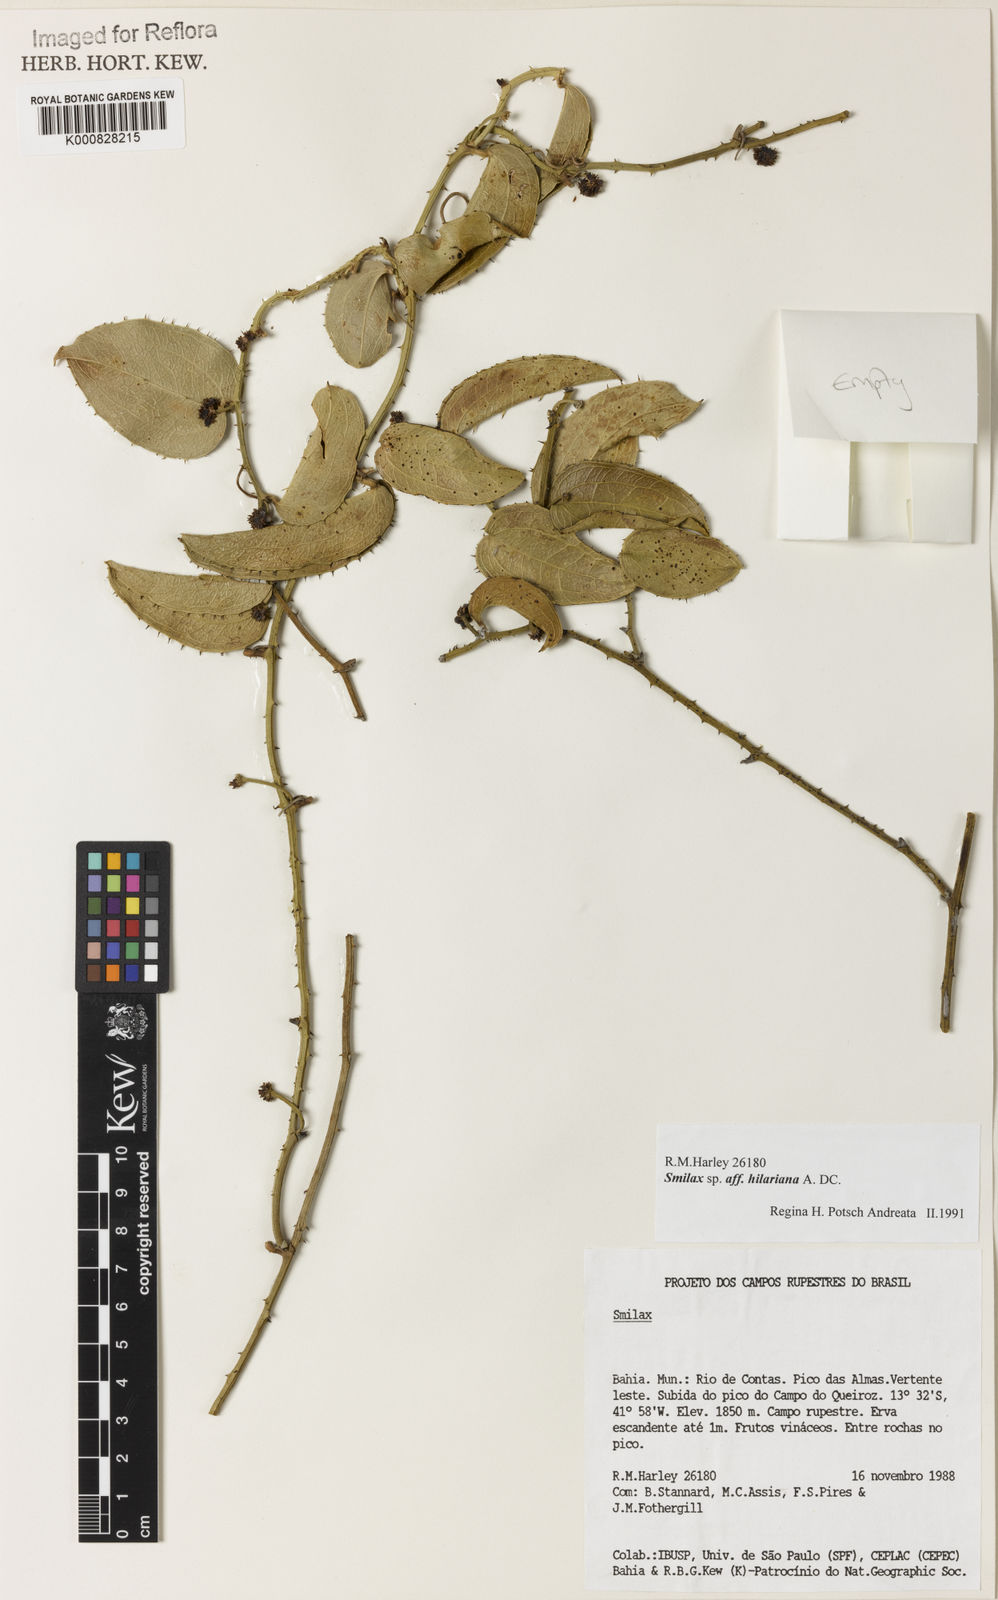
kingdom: Plantae
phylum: Tracheophyta
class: Liliopsida
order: Liliales
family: Smilacaceae
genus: Smilax
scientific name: Smilax hilariana
